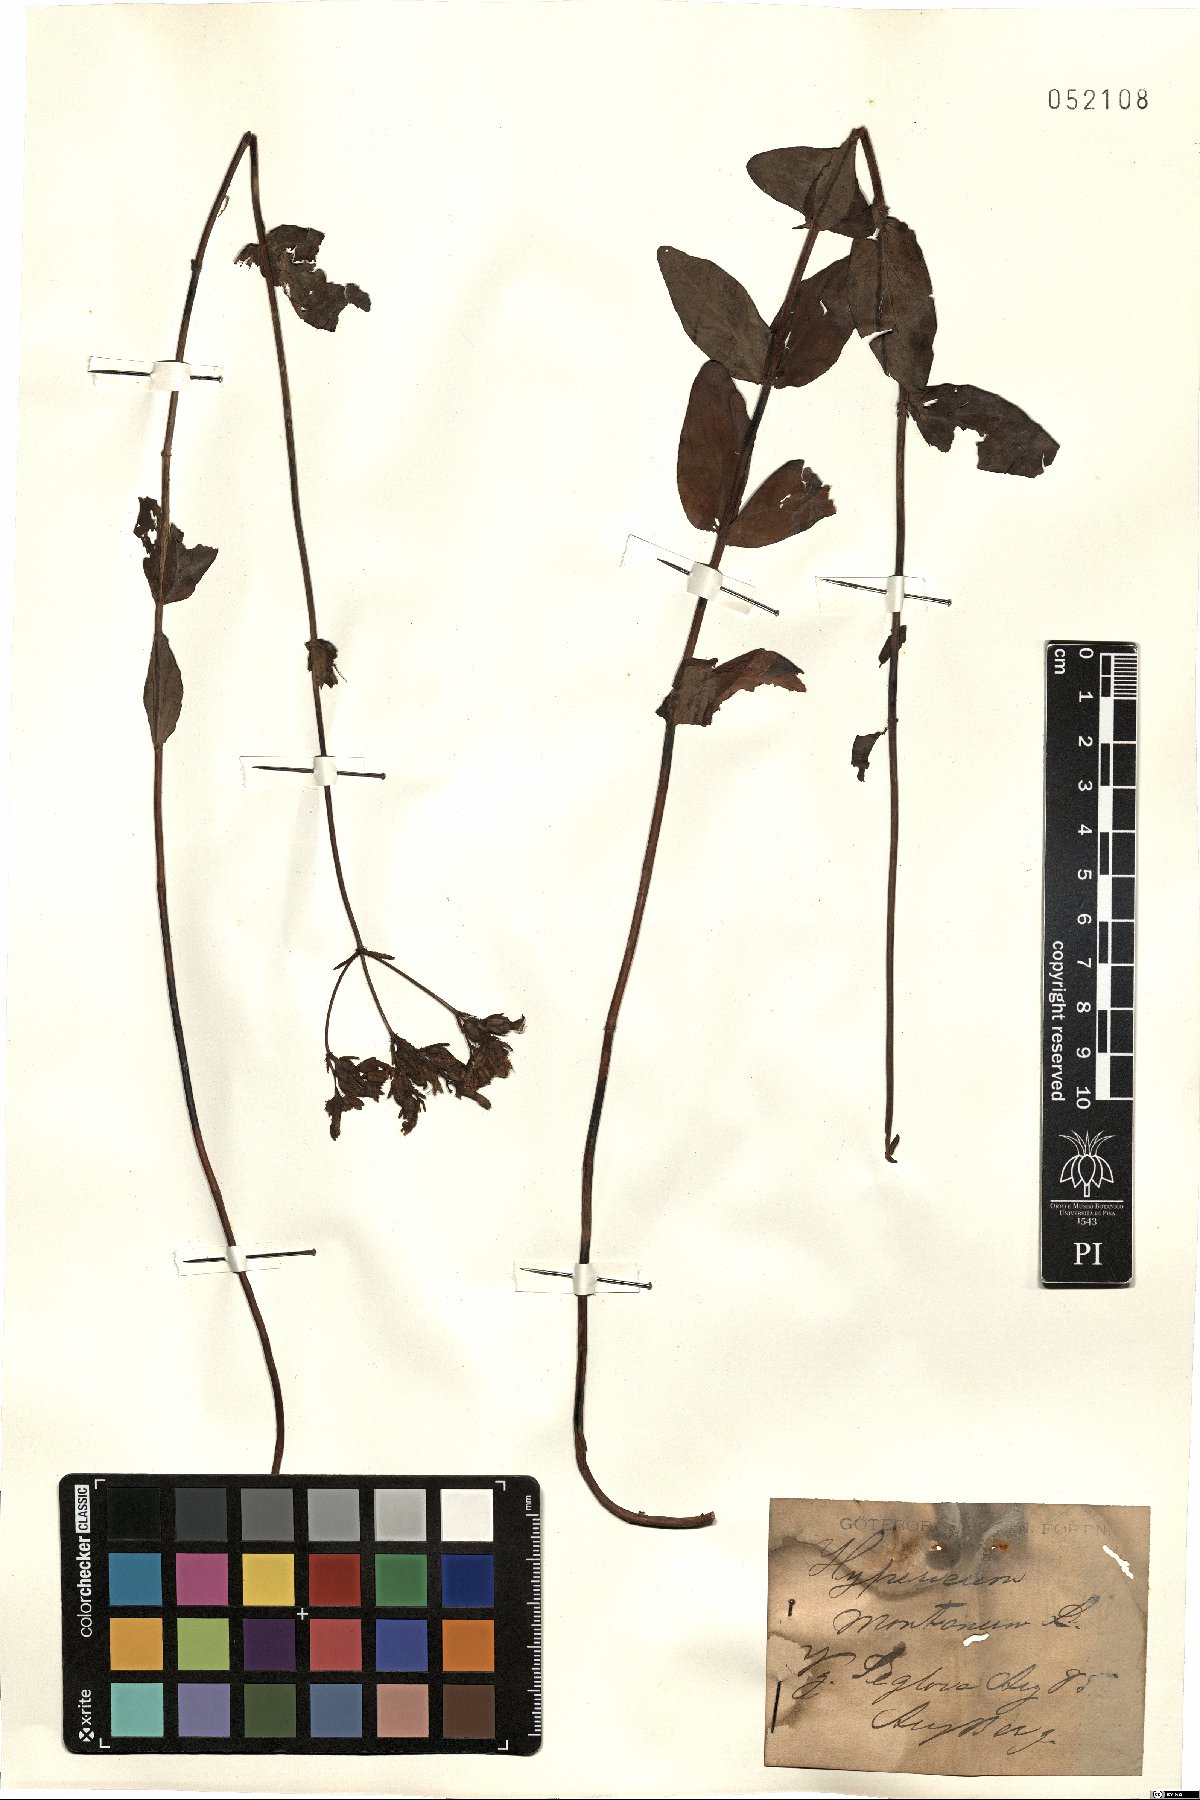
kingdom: Plantae
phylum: Tracheophyta
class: Magnoliopsida
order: Malpighiales
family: Hypericaceae
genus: Hypericum
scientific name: Hypericum montanum
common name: Pale st. john's-wort
